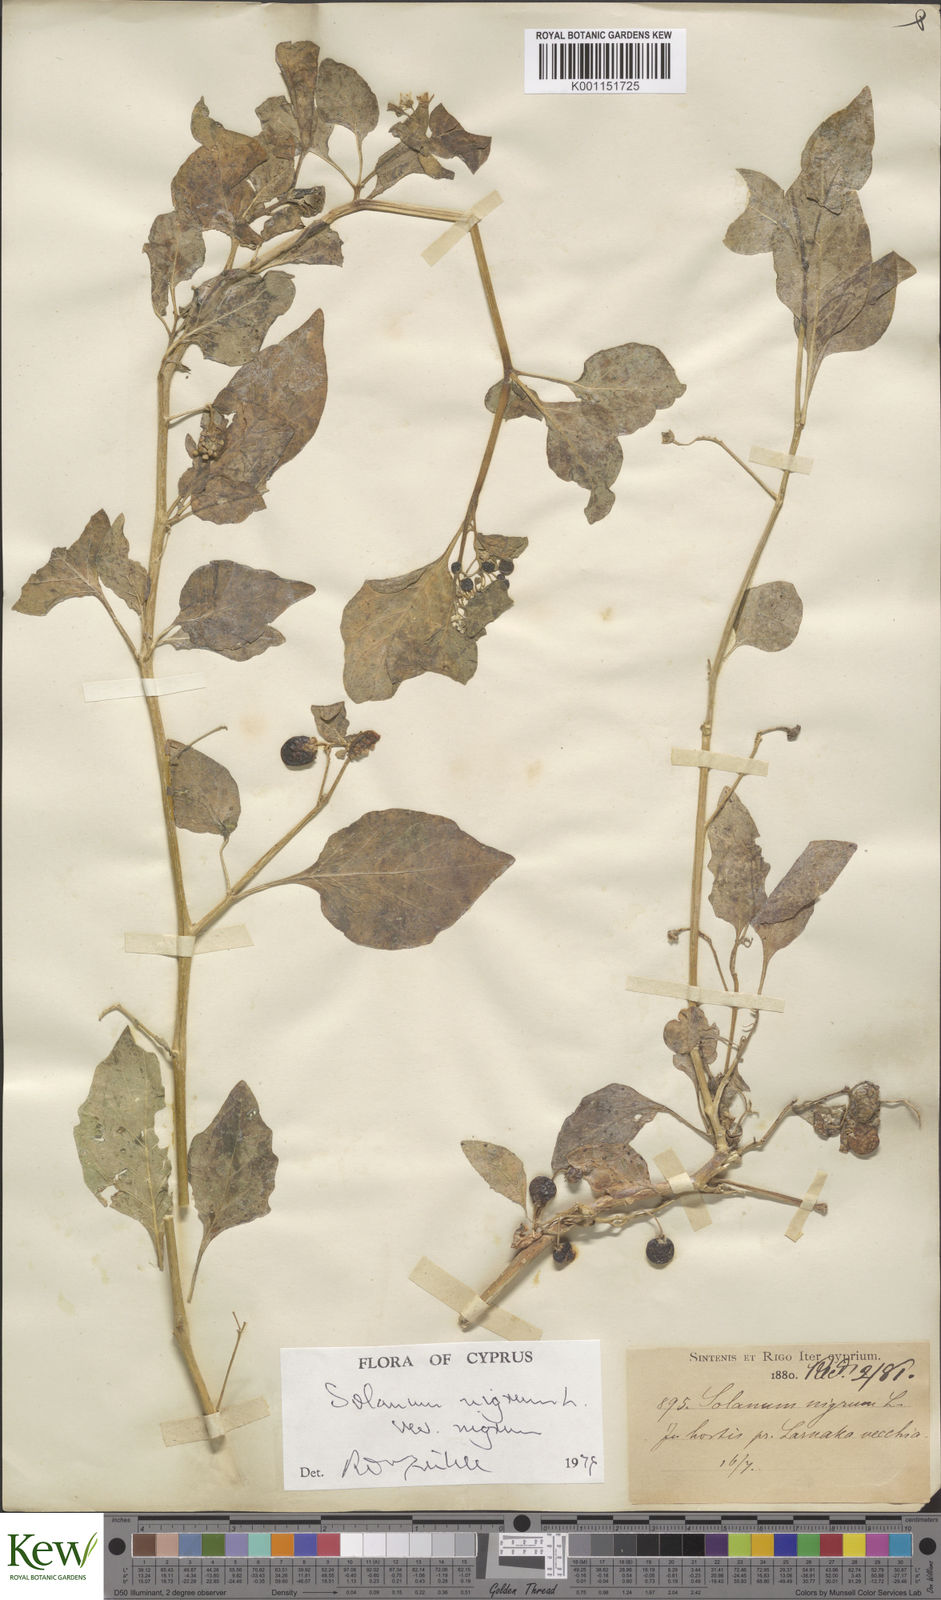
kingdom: Plantae
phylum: Tracheophyta
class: Magnoliopsida
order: Solanales
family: Solanaceae
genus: Solanum
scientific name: Solanum nigrum
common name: Black nightshade
